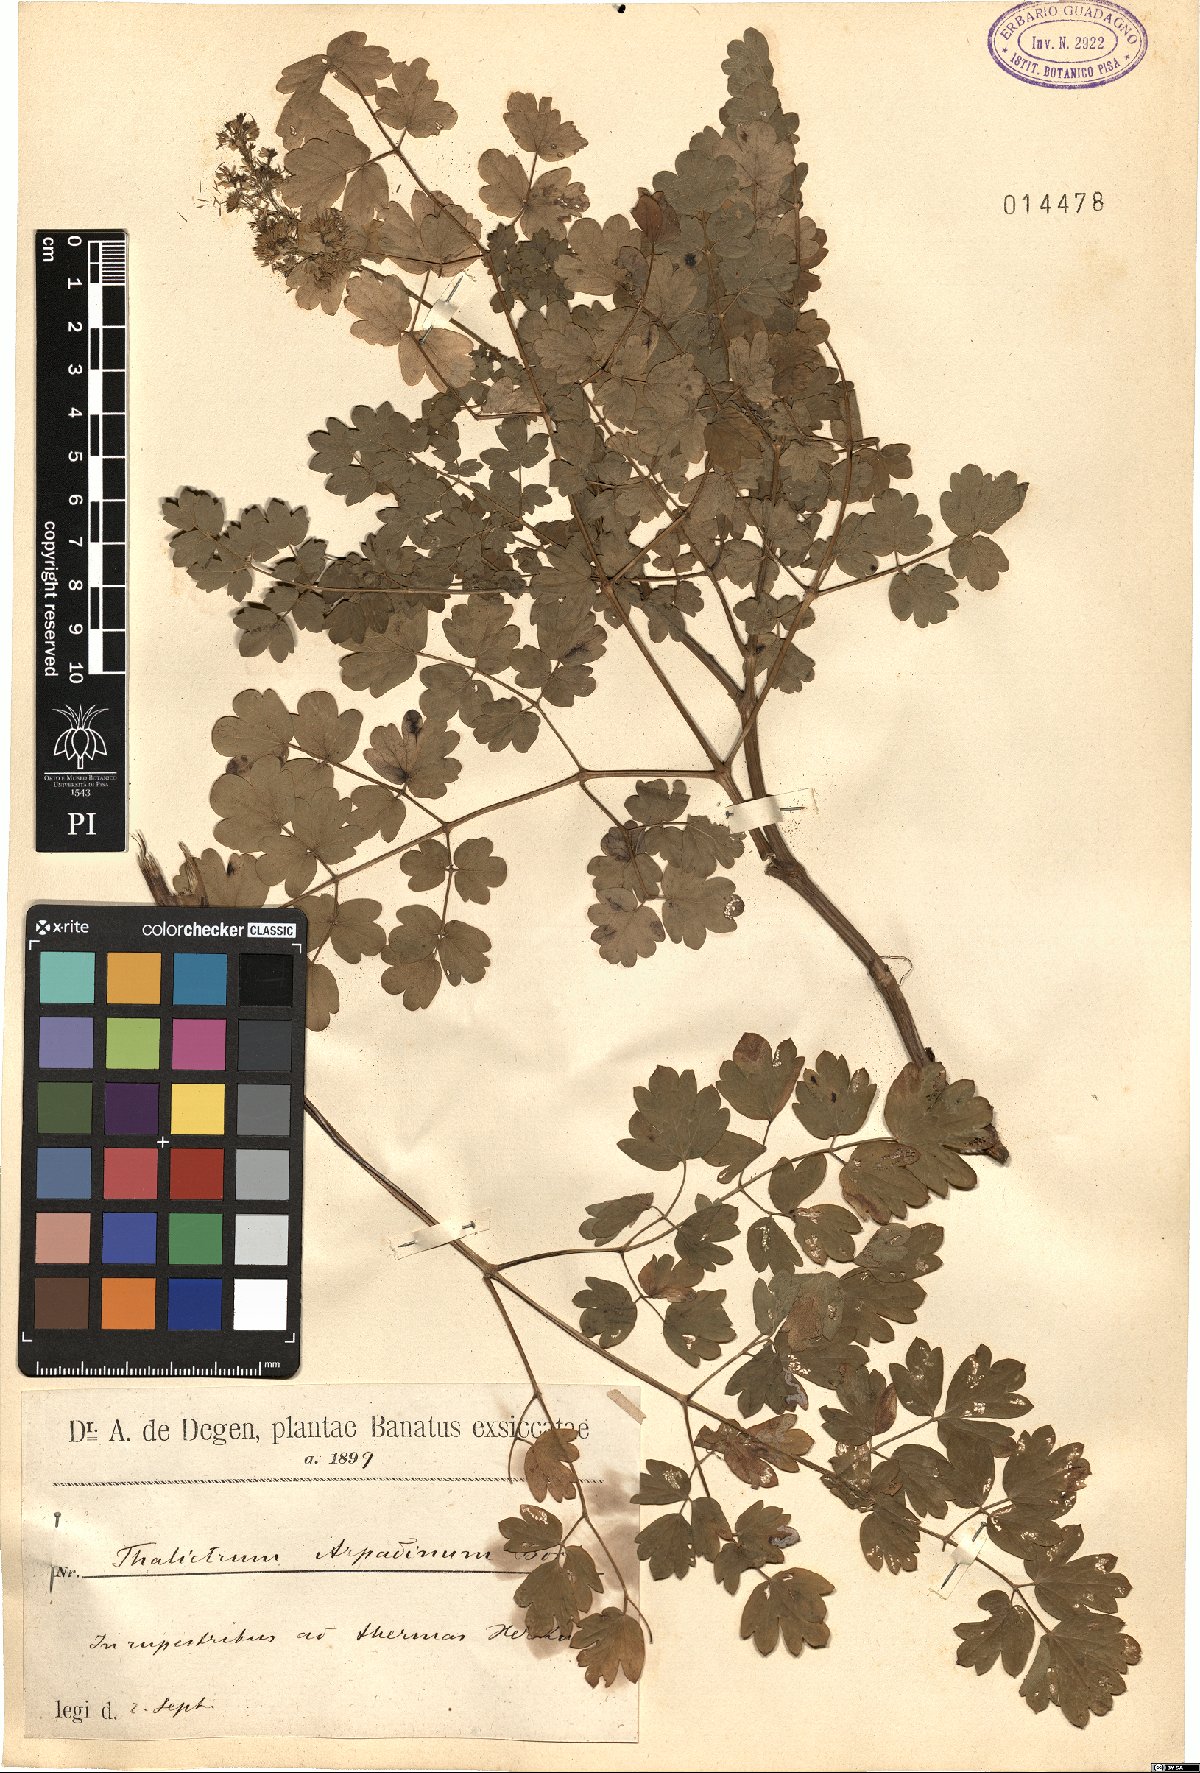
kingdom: Plantae
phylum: Tracheophyta
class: Magnoliopsida
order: Ranunculales
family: Ranunculaceae
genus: Thalictrum
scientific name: Thalictrum minus
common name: Lesser meadow-rue
